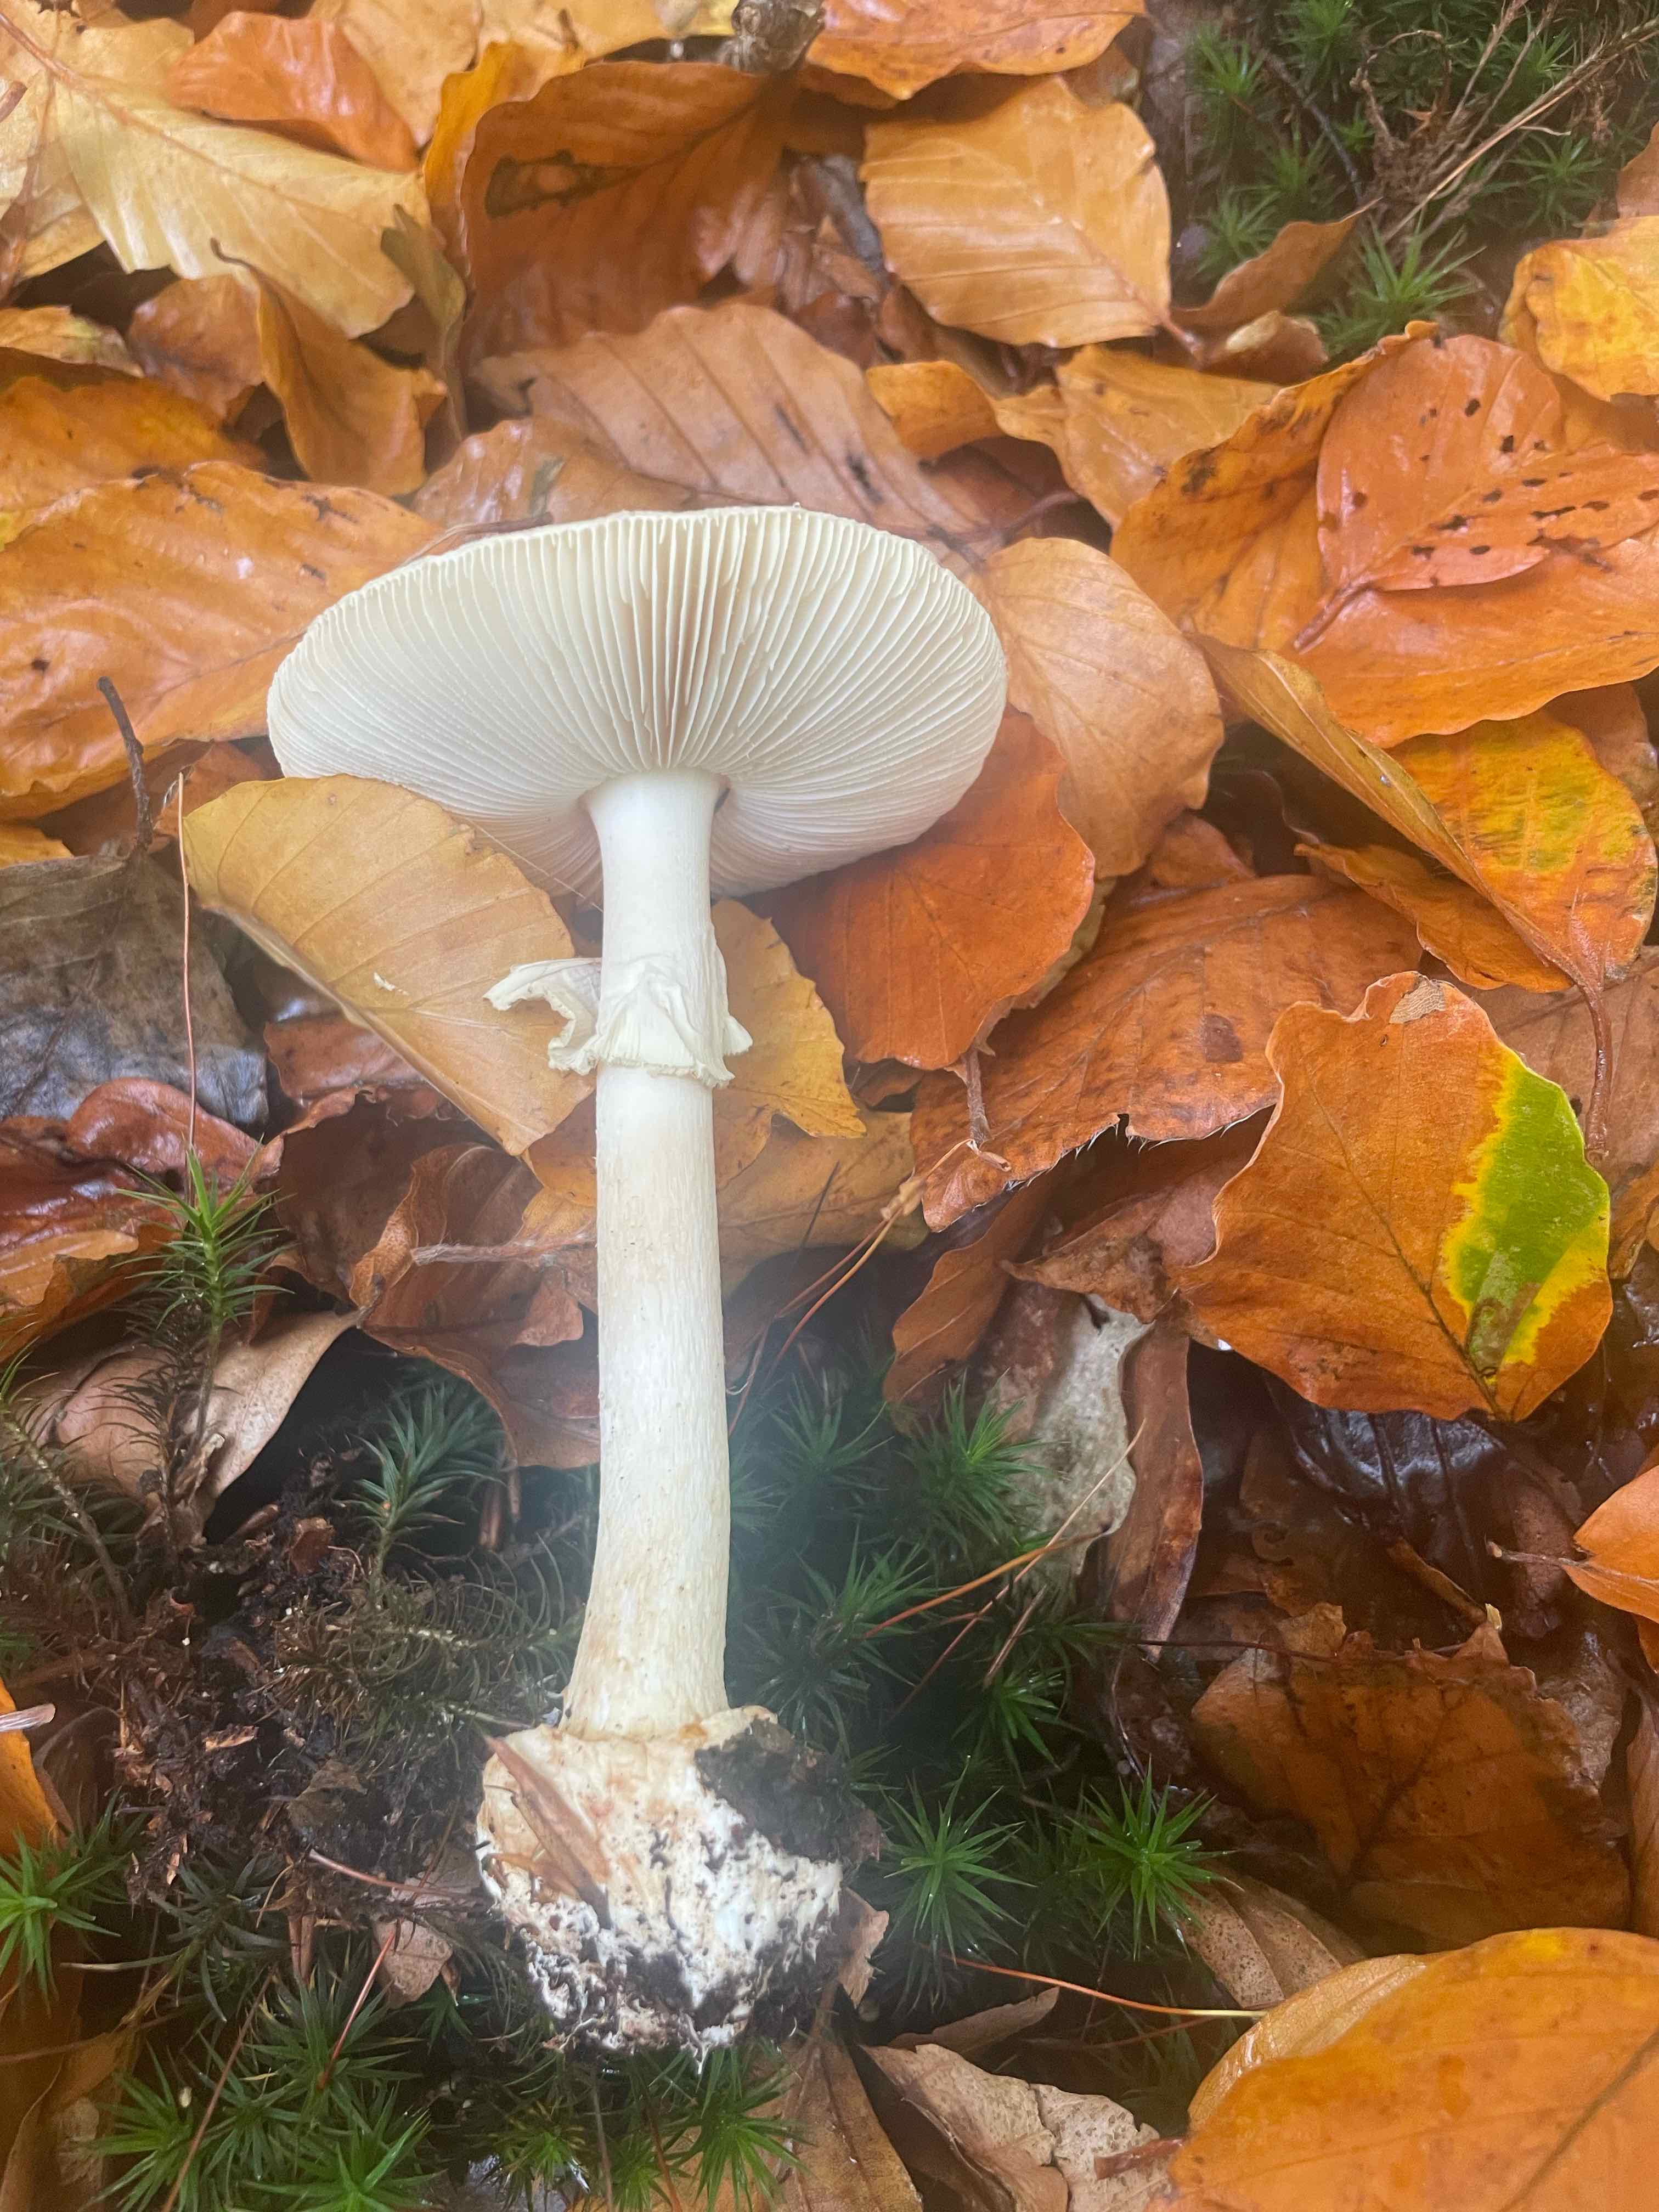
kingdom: Fungi
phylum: Basidiomycota
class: Agaricomycetes
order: Agaricales
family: Amanitaceae
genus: Amanita
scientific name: Amanita citrina
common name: kugleknoldet fluesvamp
